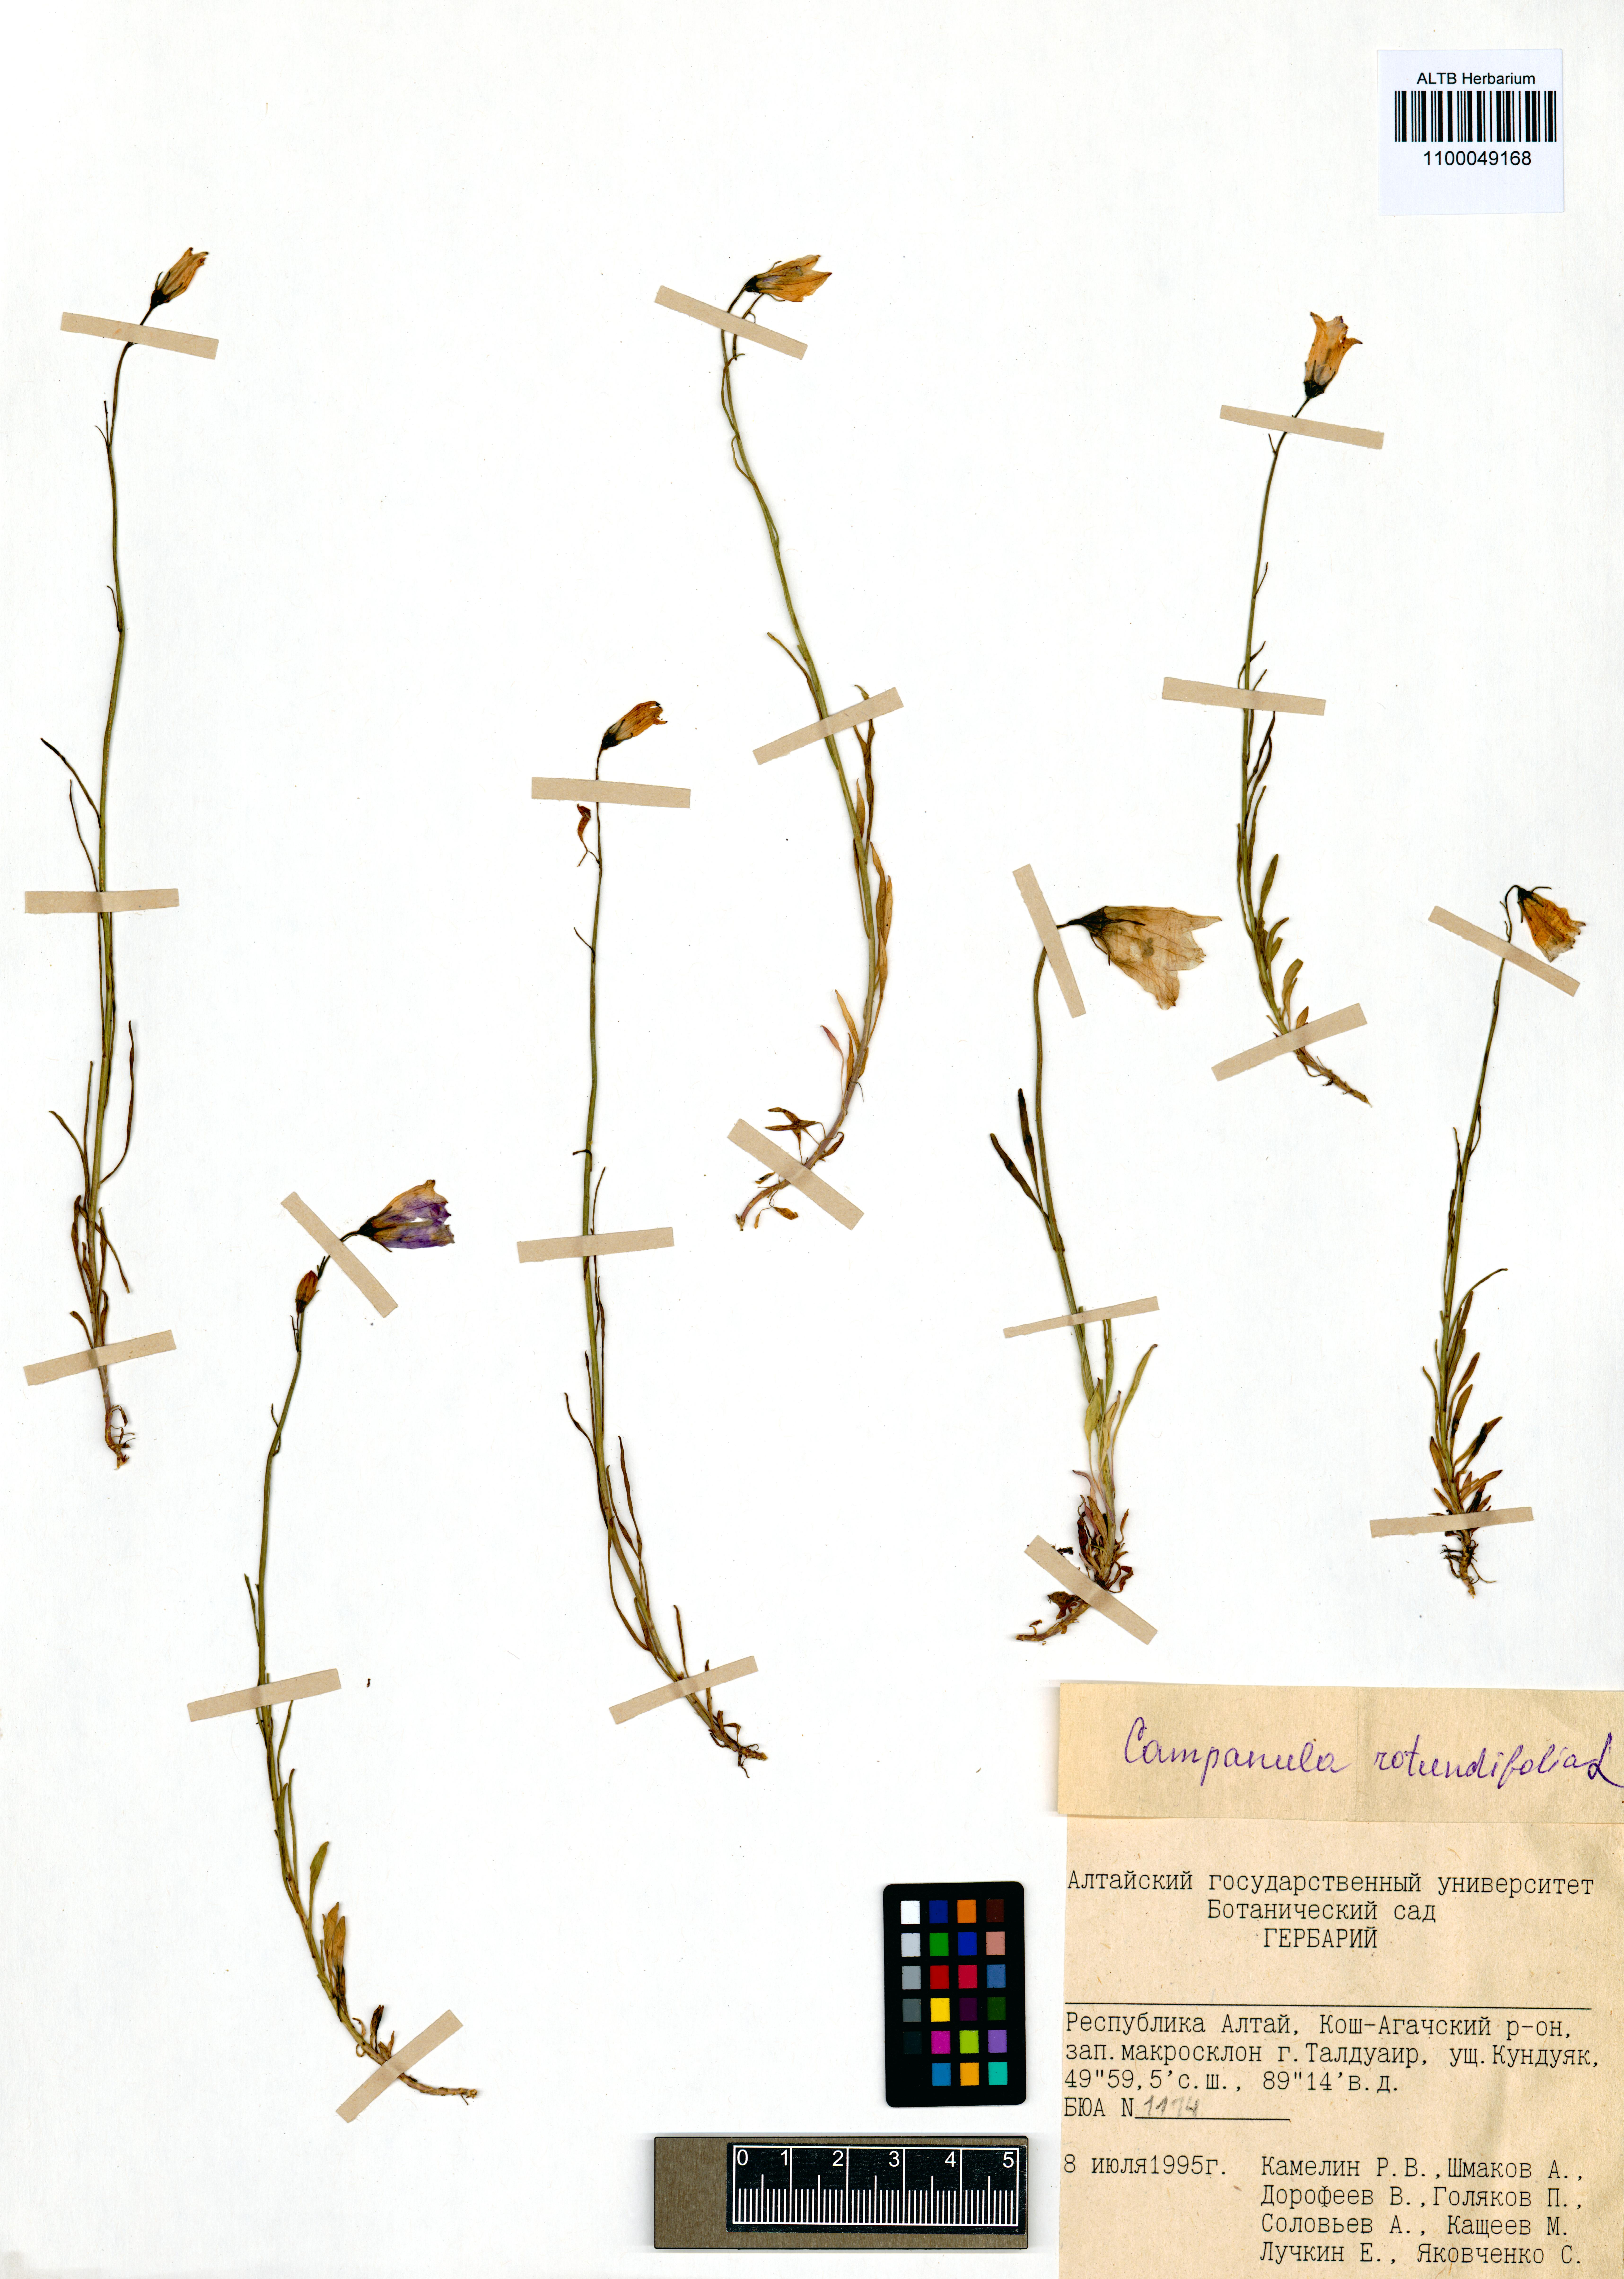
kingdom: Plantae
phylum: Tracheophyta
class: Magnoliopsida
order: Asterales
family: Campanulaceae
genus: Campanula
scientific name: Campanula rotundifolia
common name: Harebell
